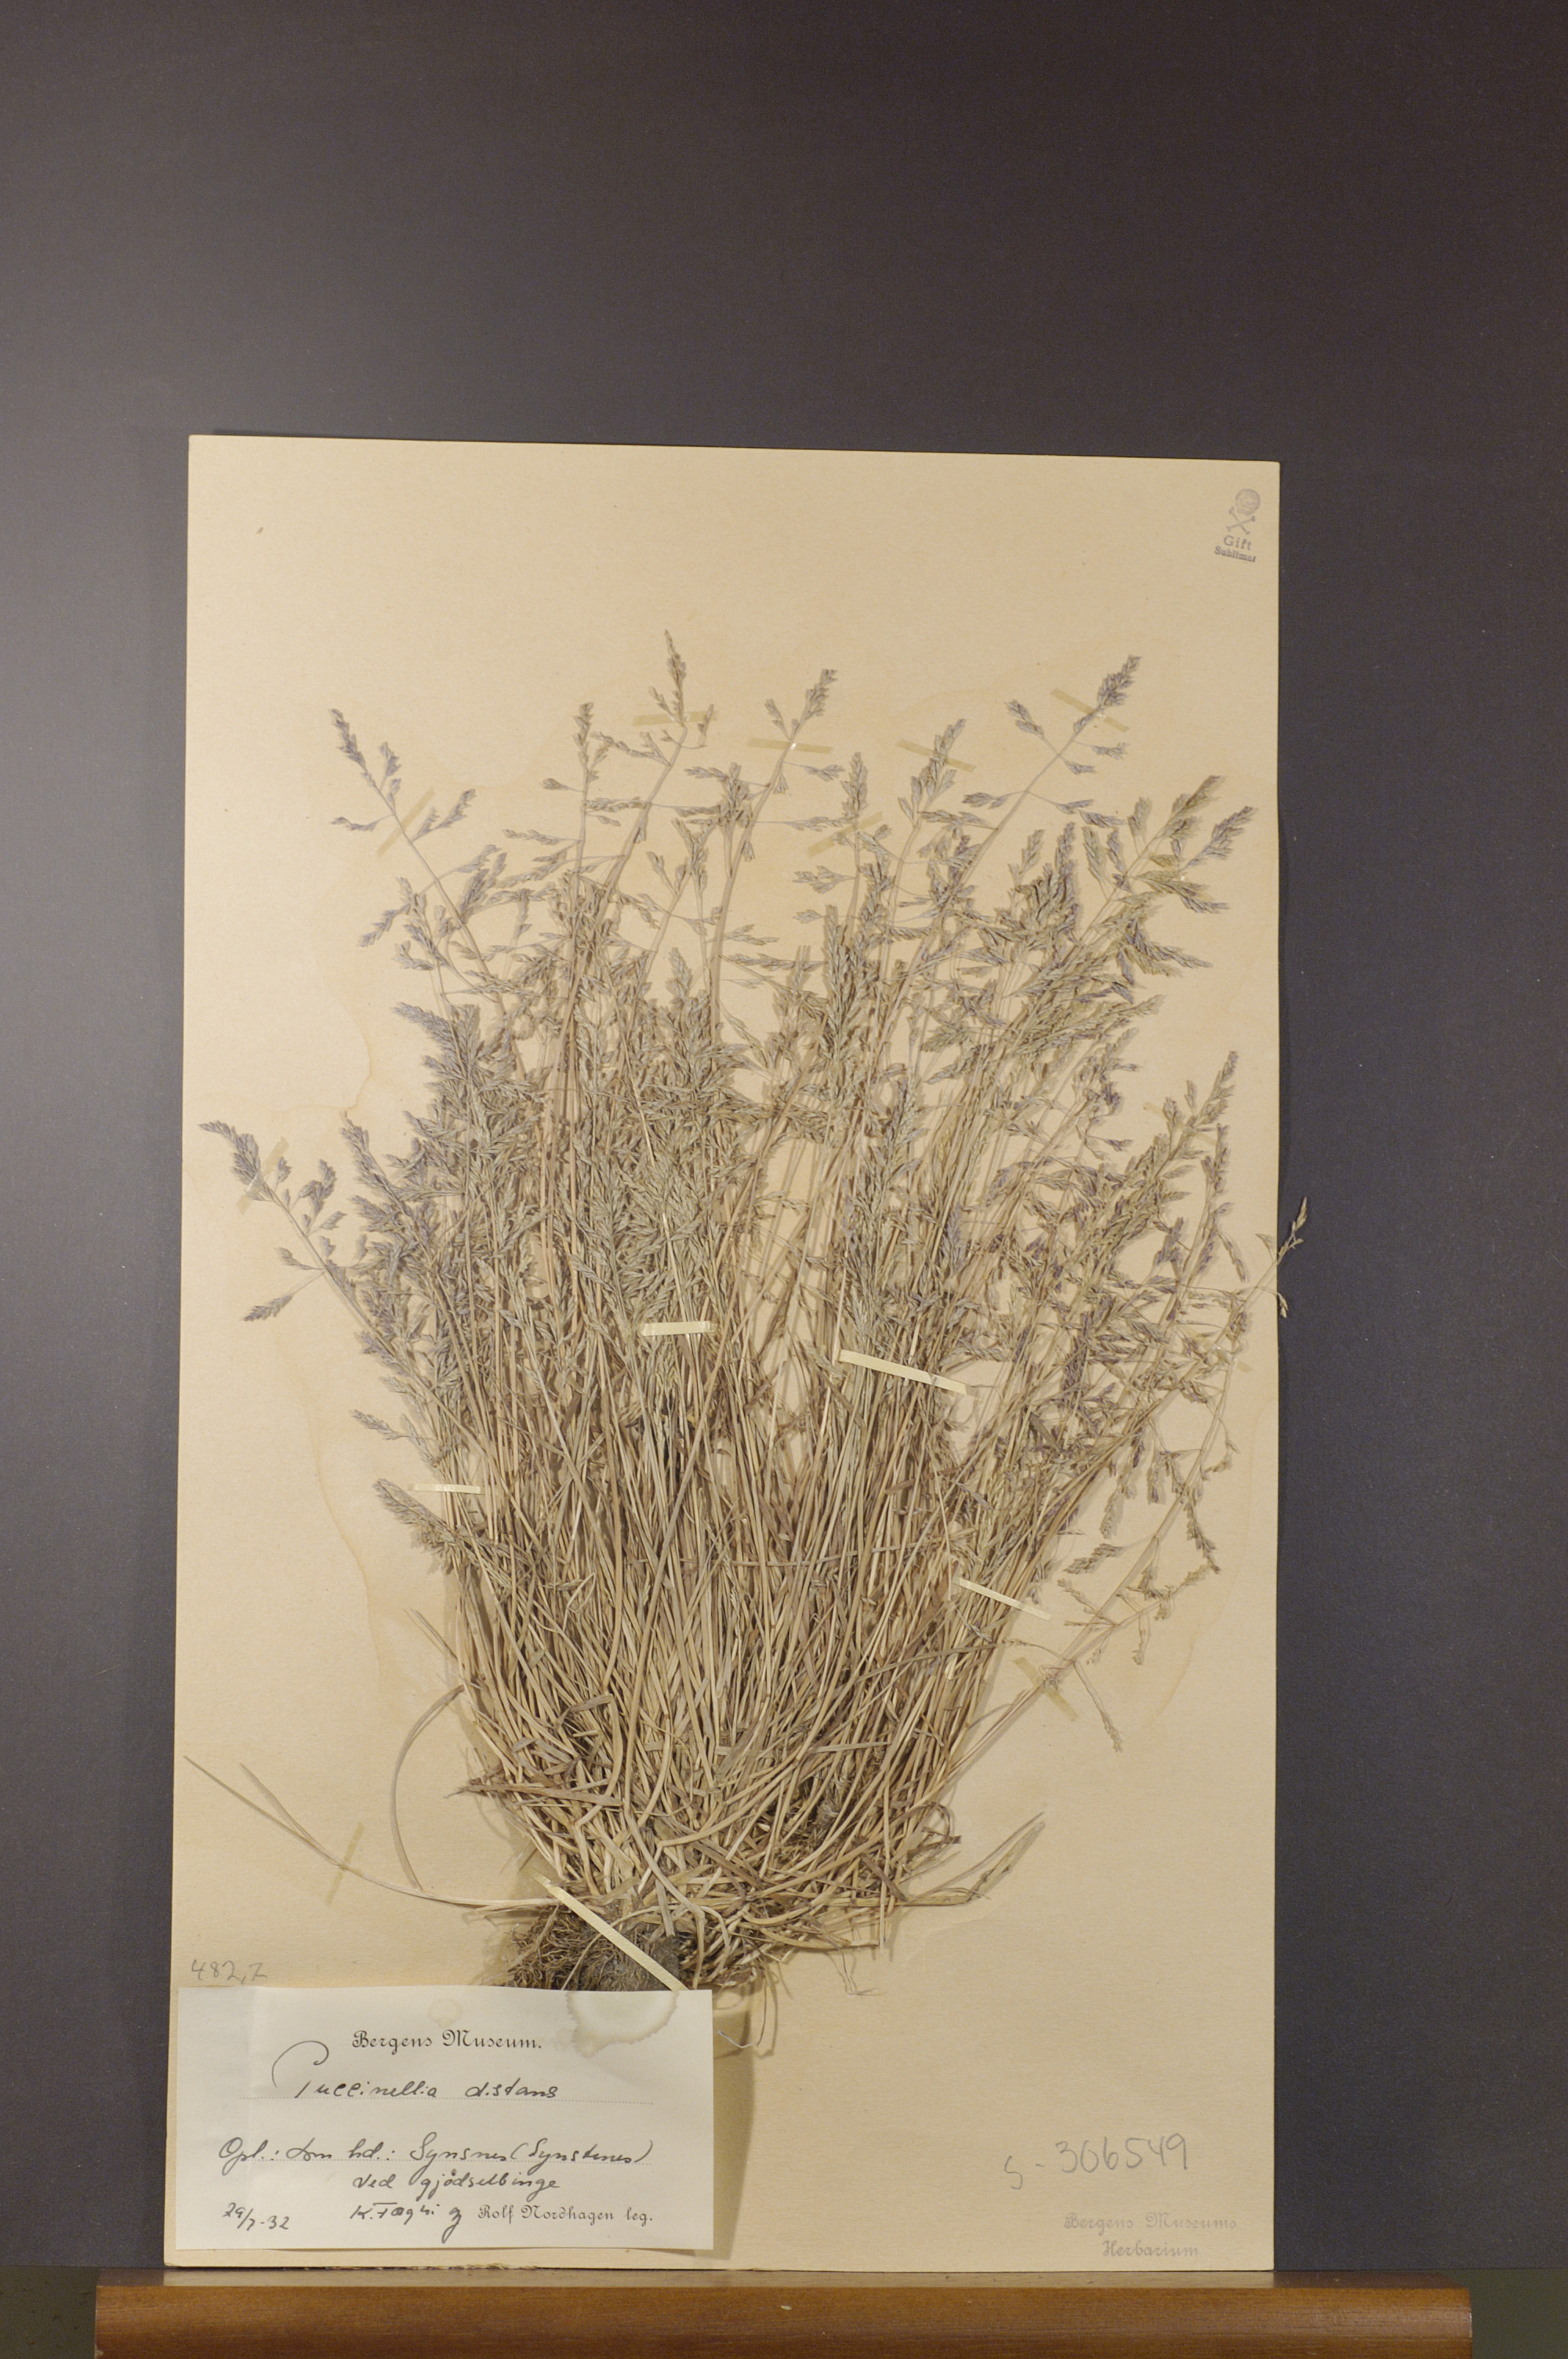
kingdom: Plantae
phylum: Tracheophyta
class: Liliopsida
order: Poales
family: Poaceae
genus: Puccinellia
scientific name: Puccinellia distans
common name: Weeping alkaligrass
